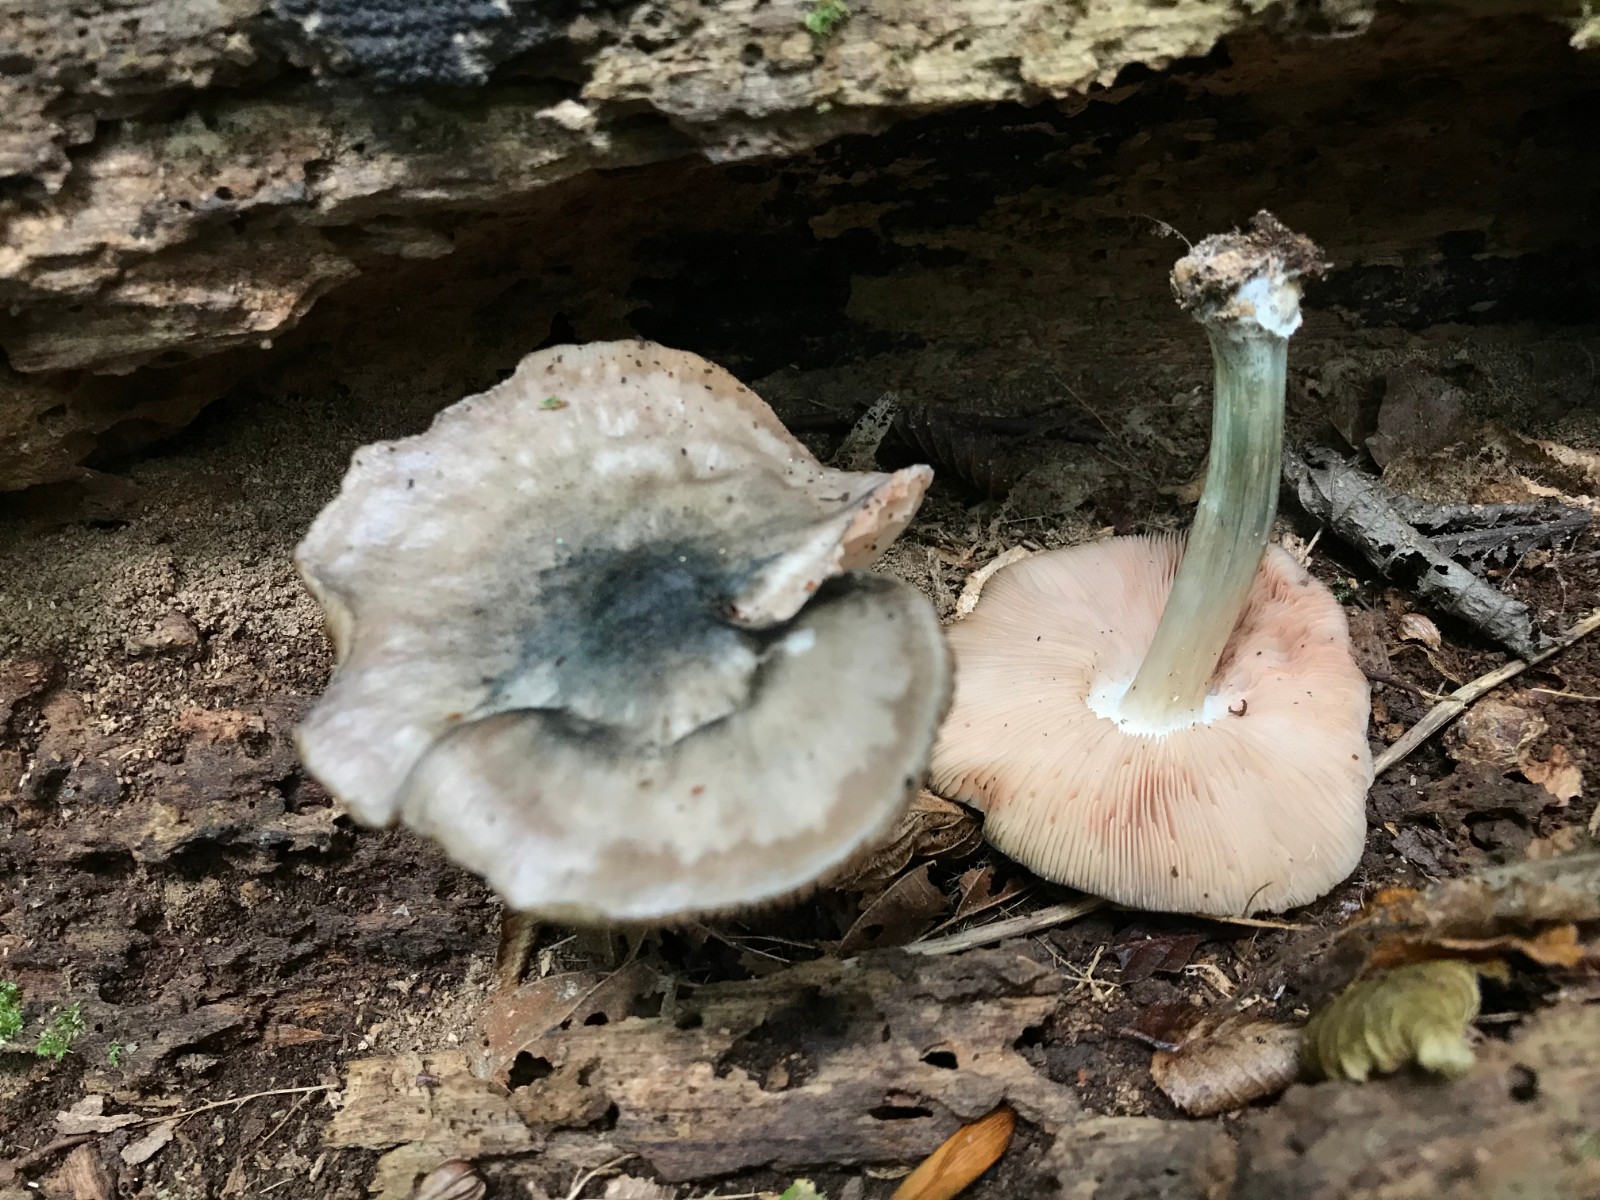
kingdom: Fungi
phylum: Basidiomycota
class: Agaricomycetes
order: Agaricales
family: Pluteaceae
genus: Pluteus
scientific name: Pluteus salicinus
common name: stiv skærmhat
